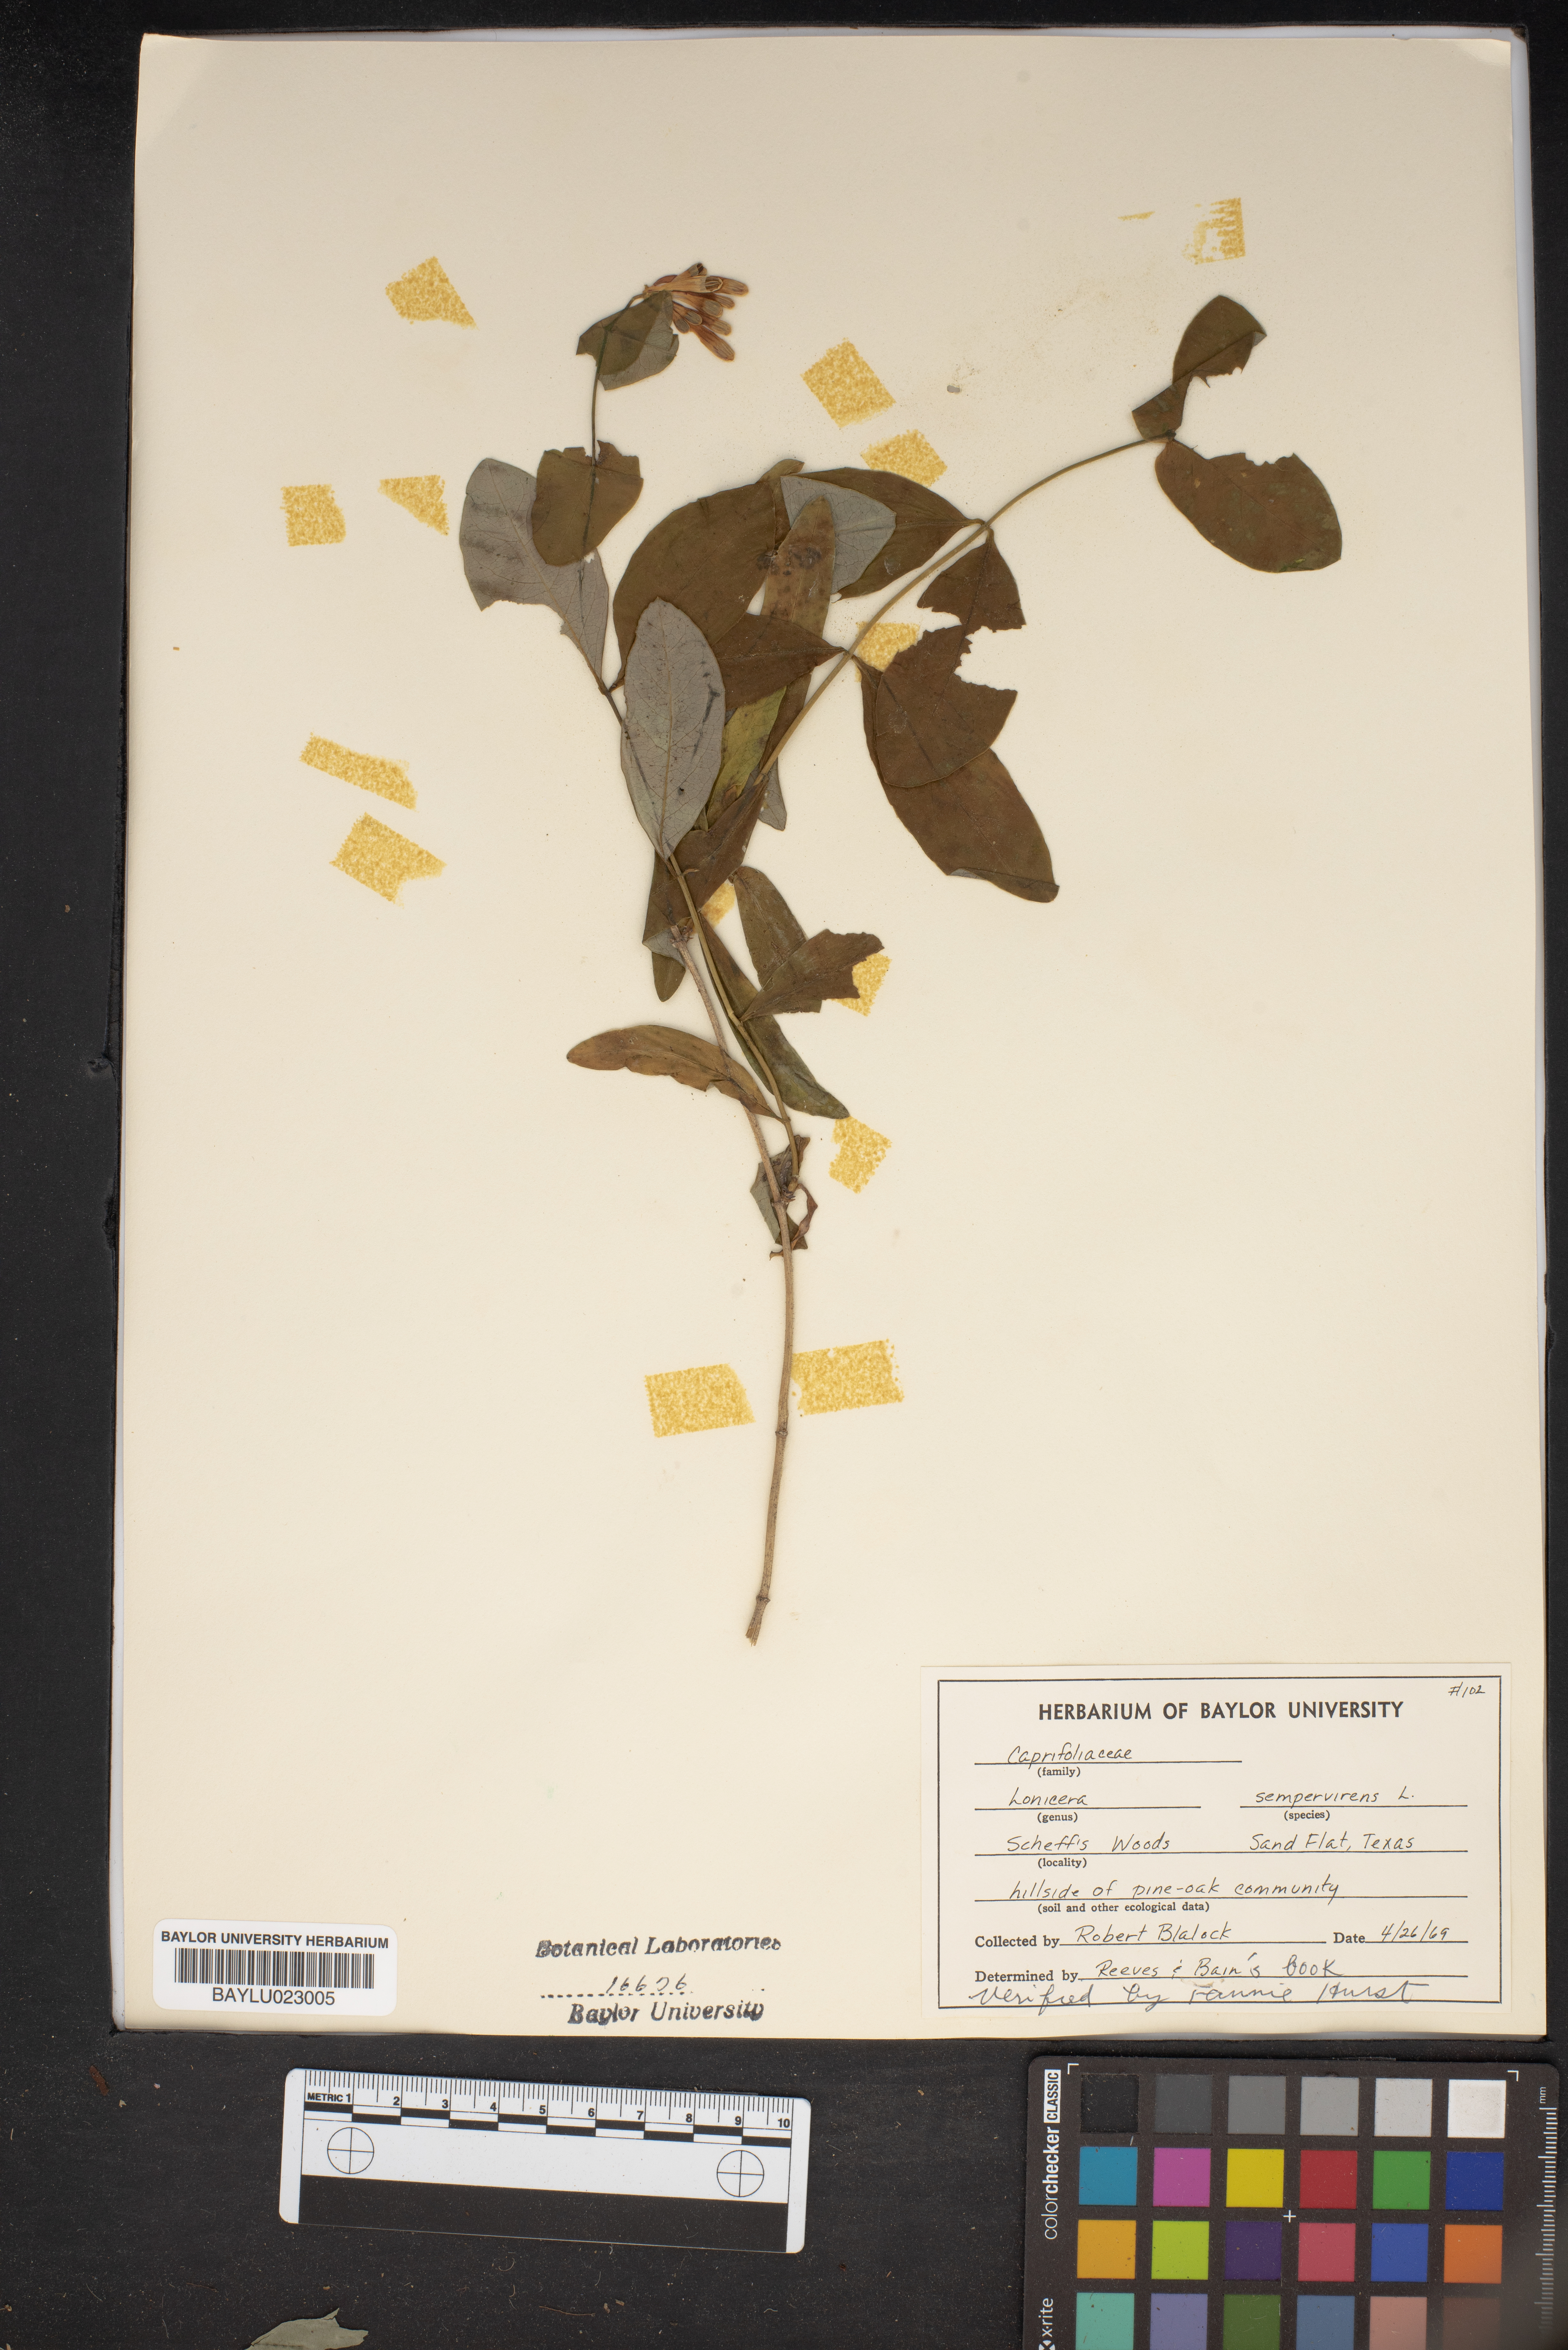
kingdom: Plantae
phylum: Tracheophyta
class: Magnoliopsida
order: Dipsacales
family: Caprifoliaceae
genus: Lonicera
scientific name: Lonicera sempervirens
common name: Coral honeysuckle
